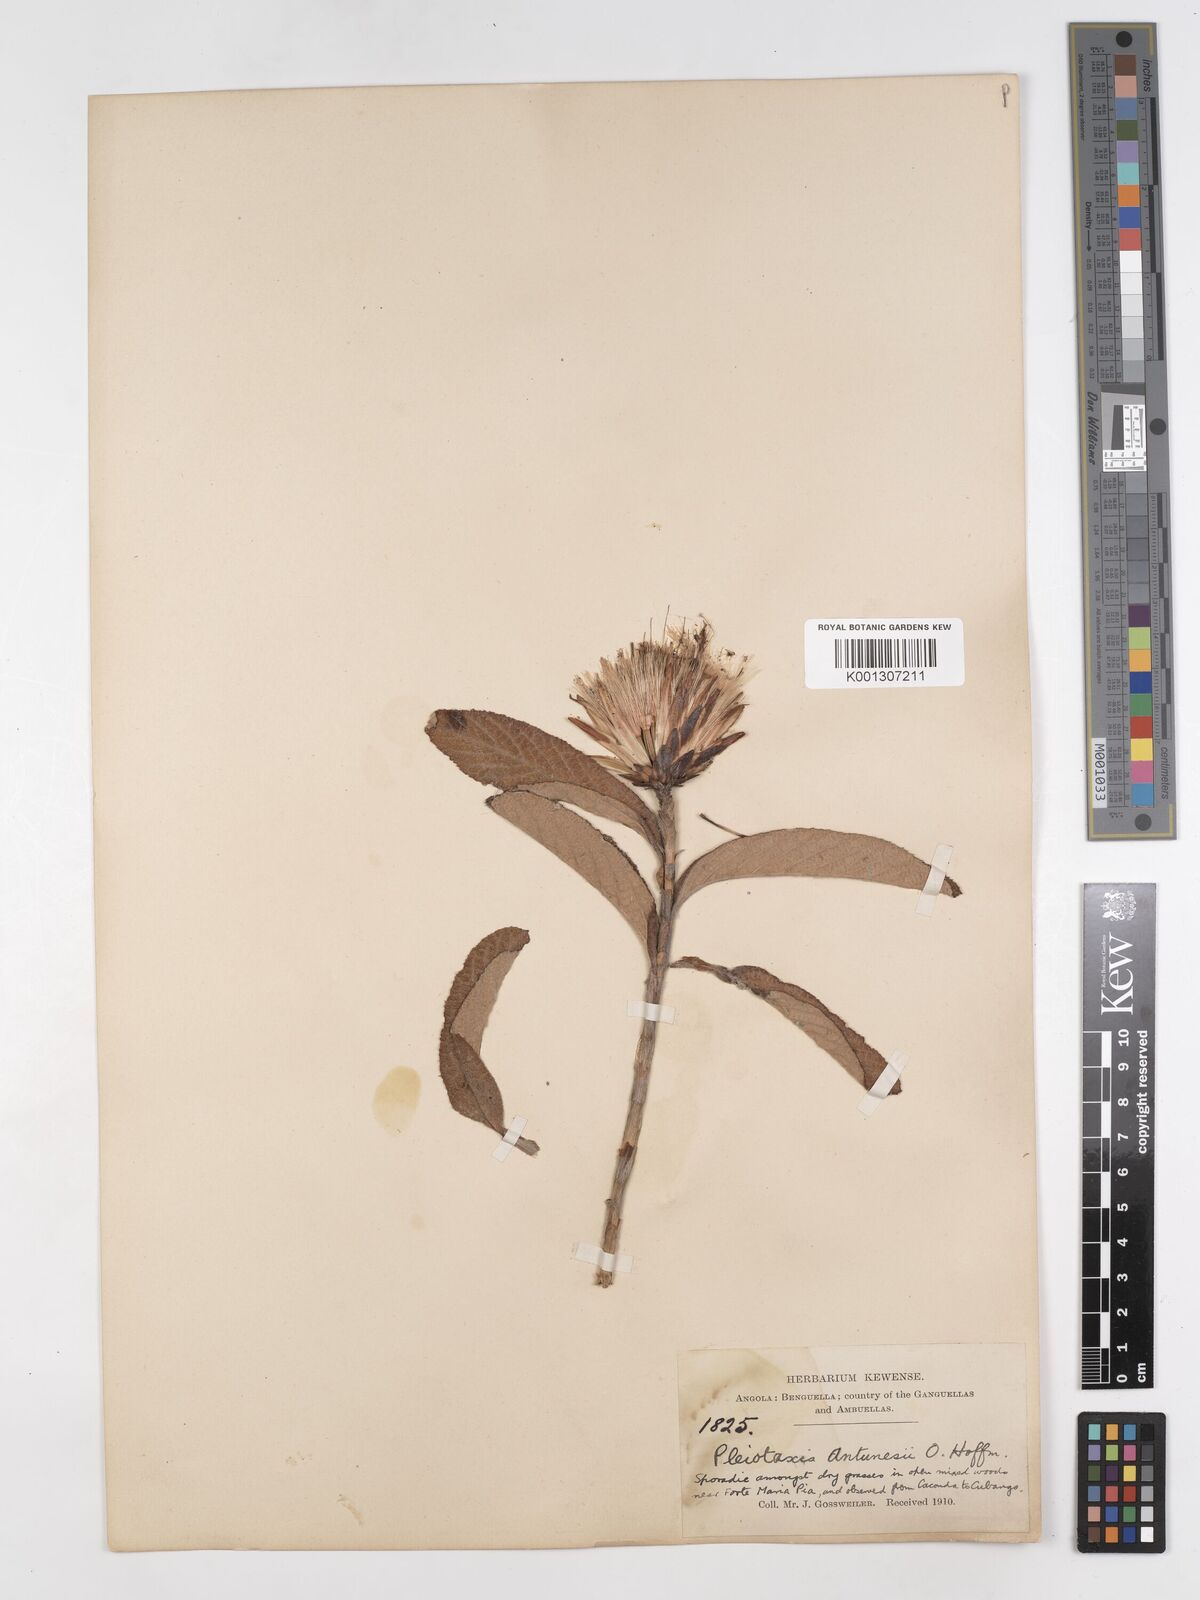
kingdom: Plantae
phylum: Tracheophyta
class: Magnoliopsida
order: Asterales
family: Asteraceae
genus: Pleiotaxis
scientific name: Pleiotaxis rugosa
